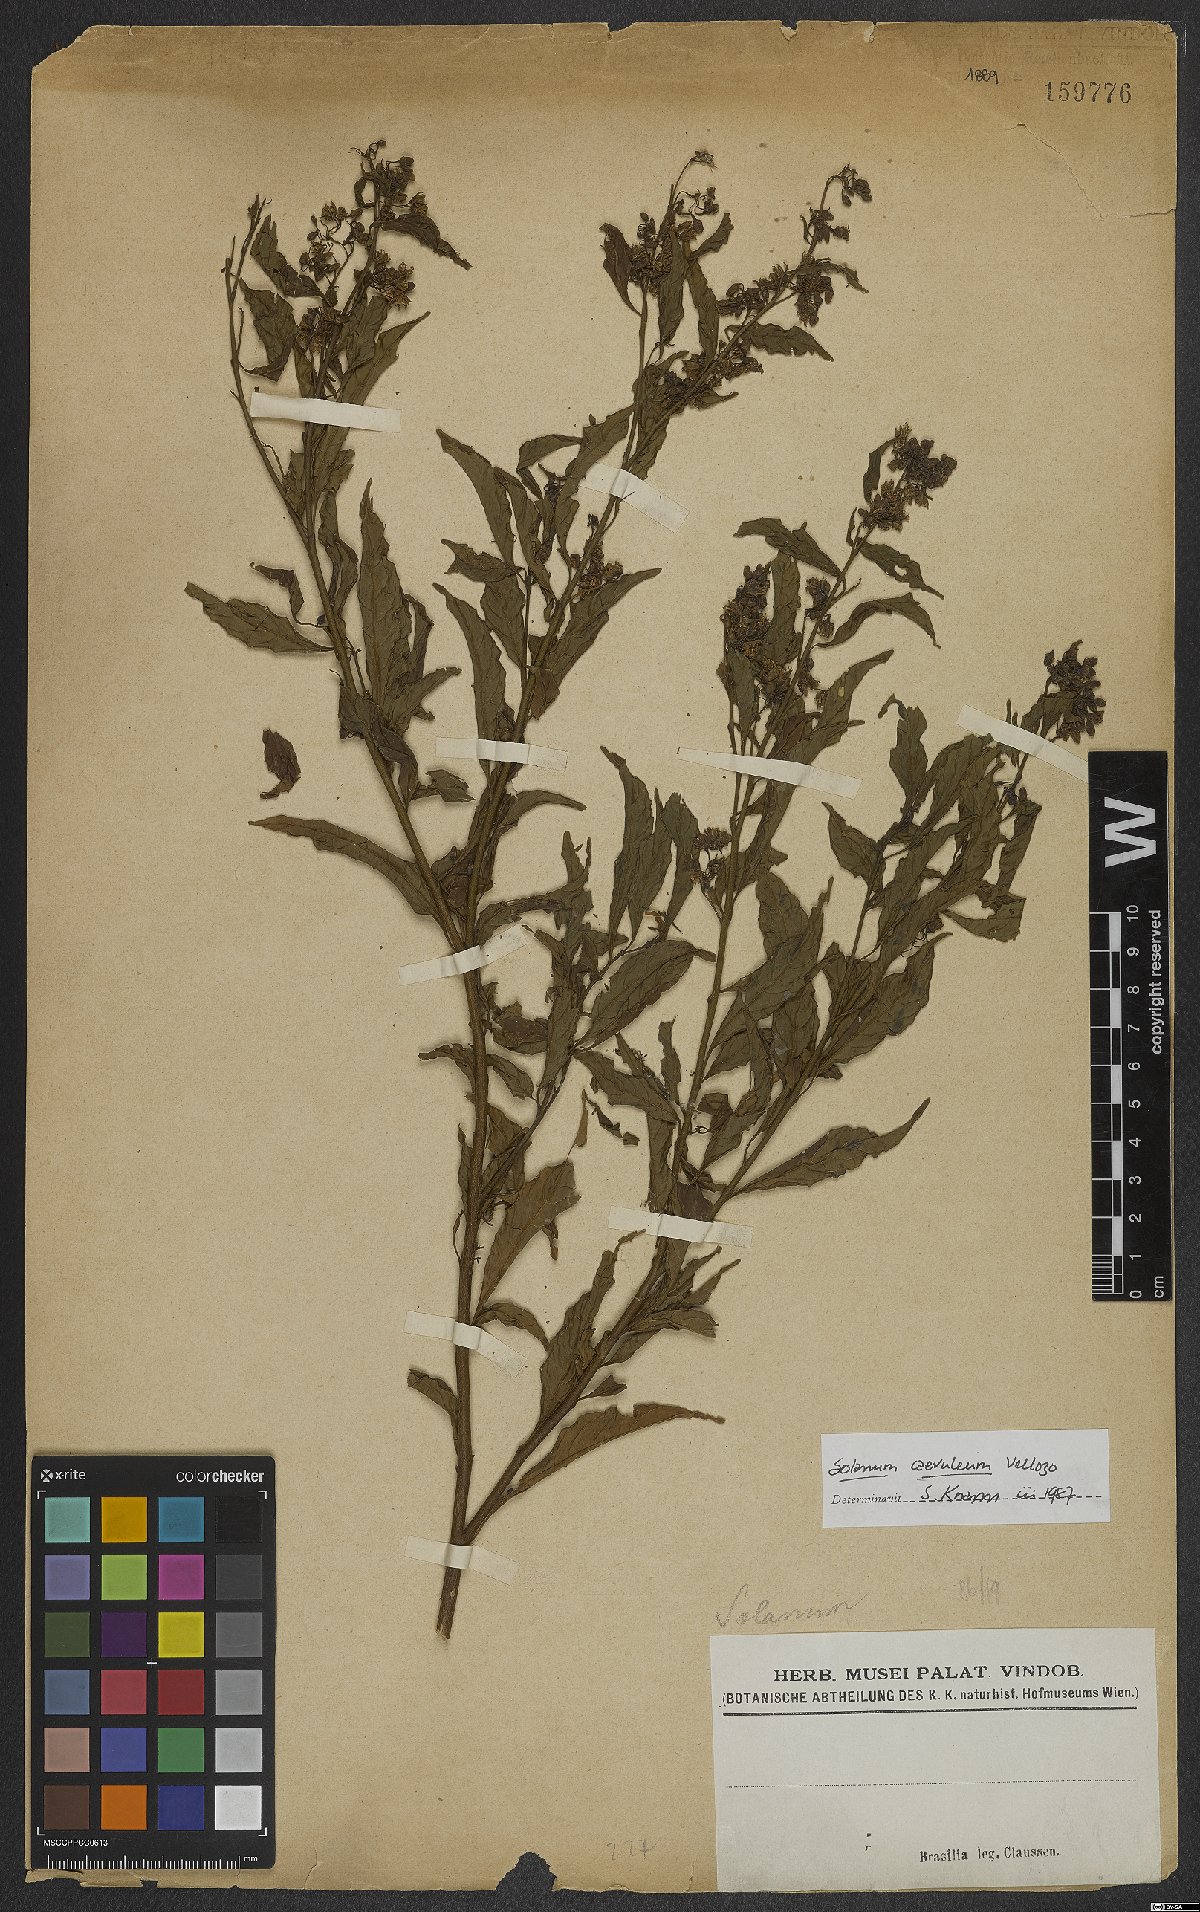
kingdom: Plantae
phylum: Tracheophyta
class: Magnoliopsida
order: Solanales
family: Solanaceae
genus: Solanum
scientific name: Solanum campaniforme
